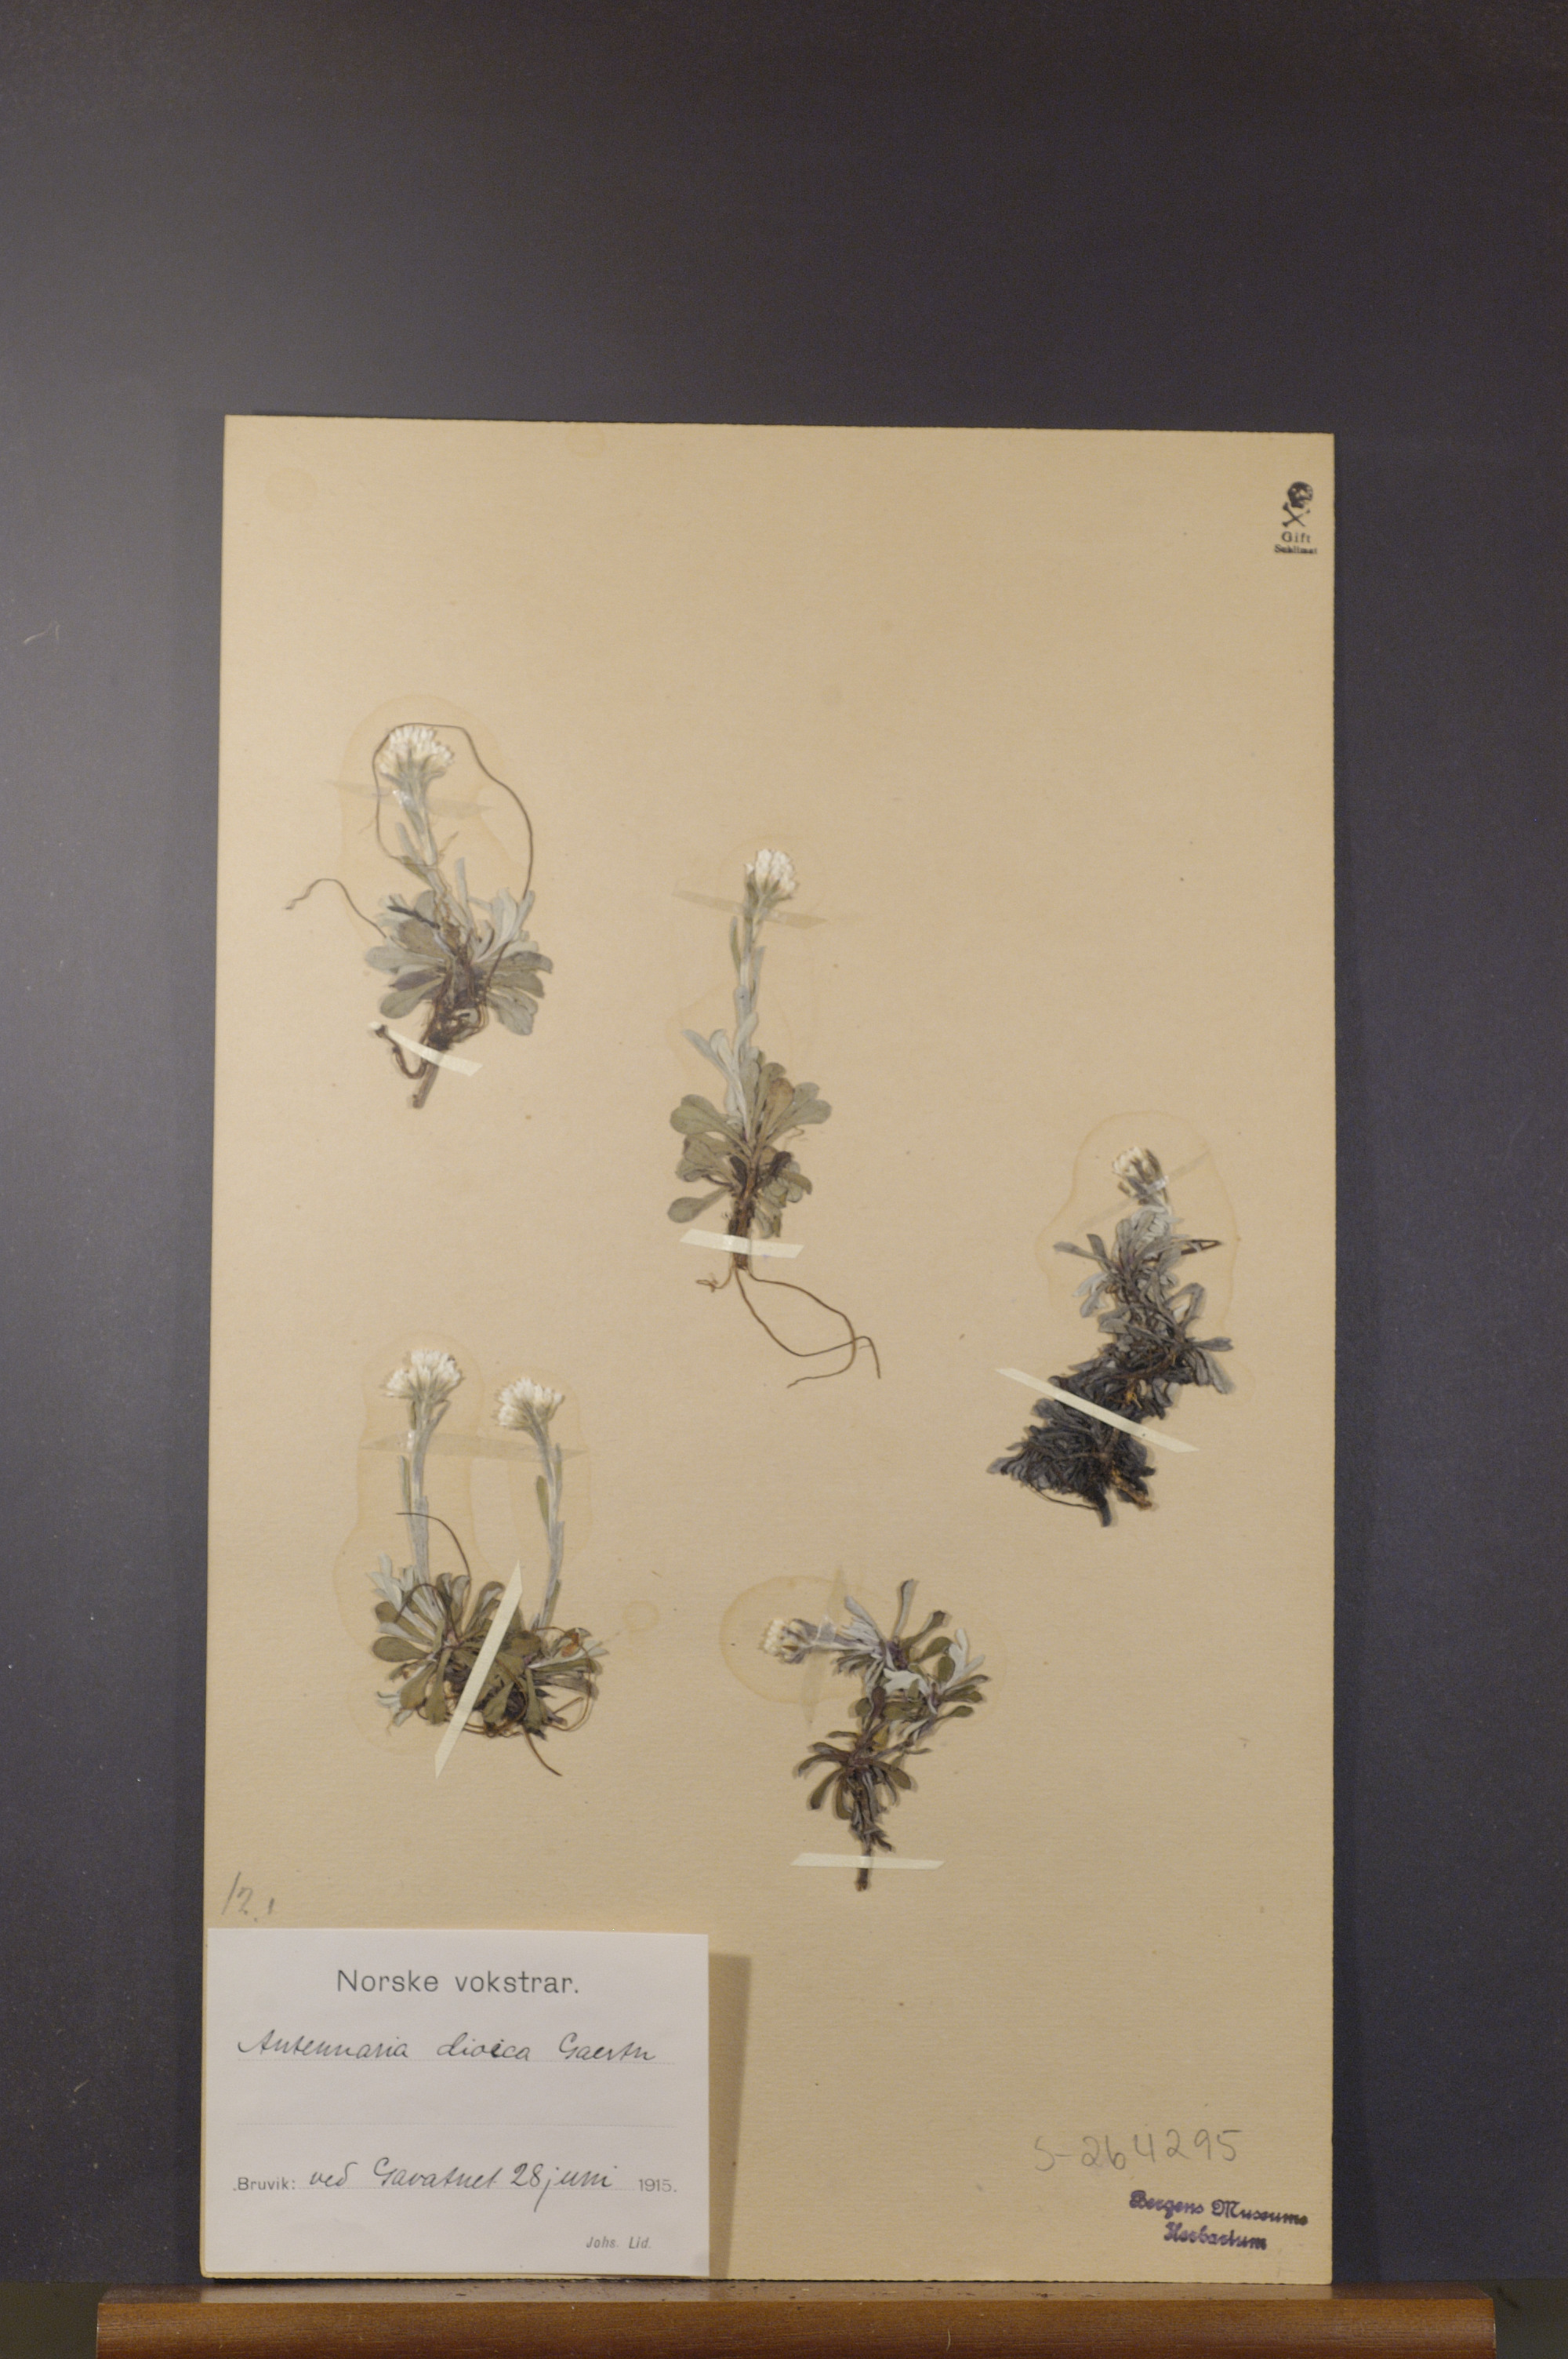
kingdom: Plantae
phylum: Tracheophyta
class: Magnoliopsida
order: Asterales
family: Asteraceae
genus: Antennaria
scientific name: Antennaria dioica
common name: Mountain everlasting
